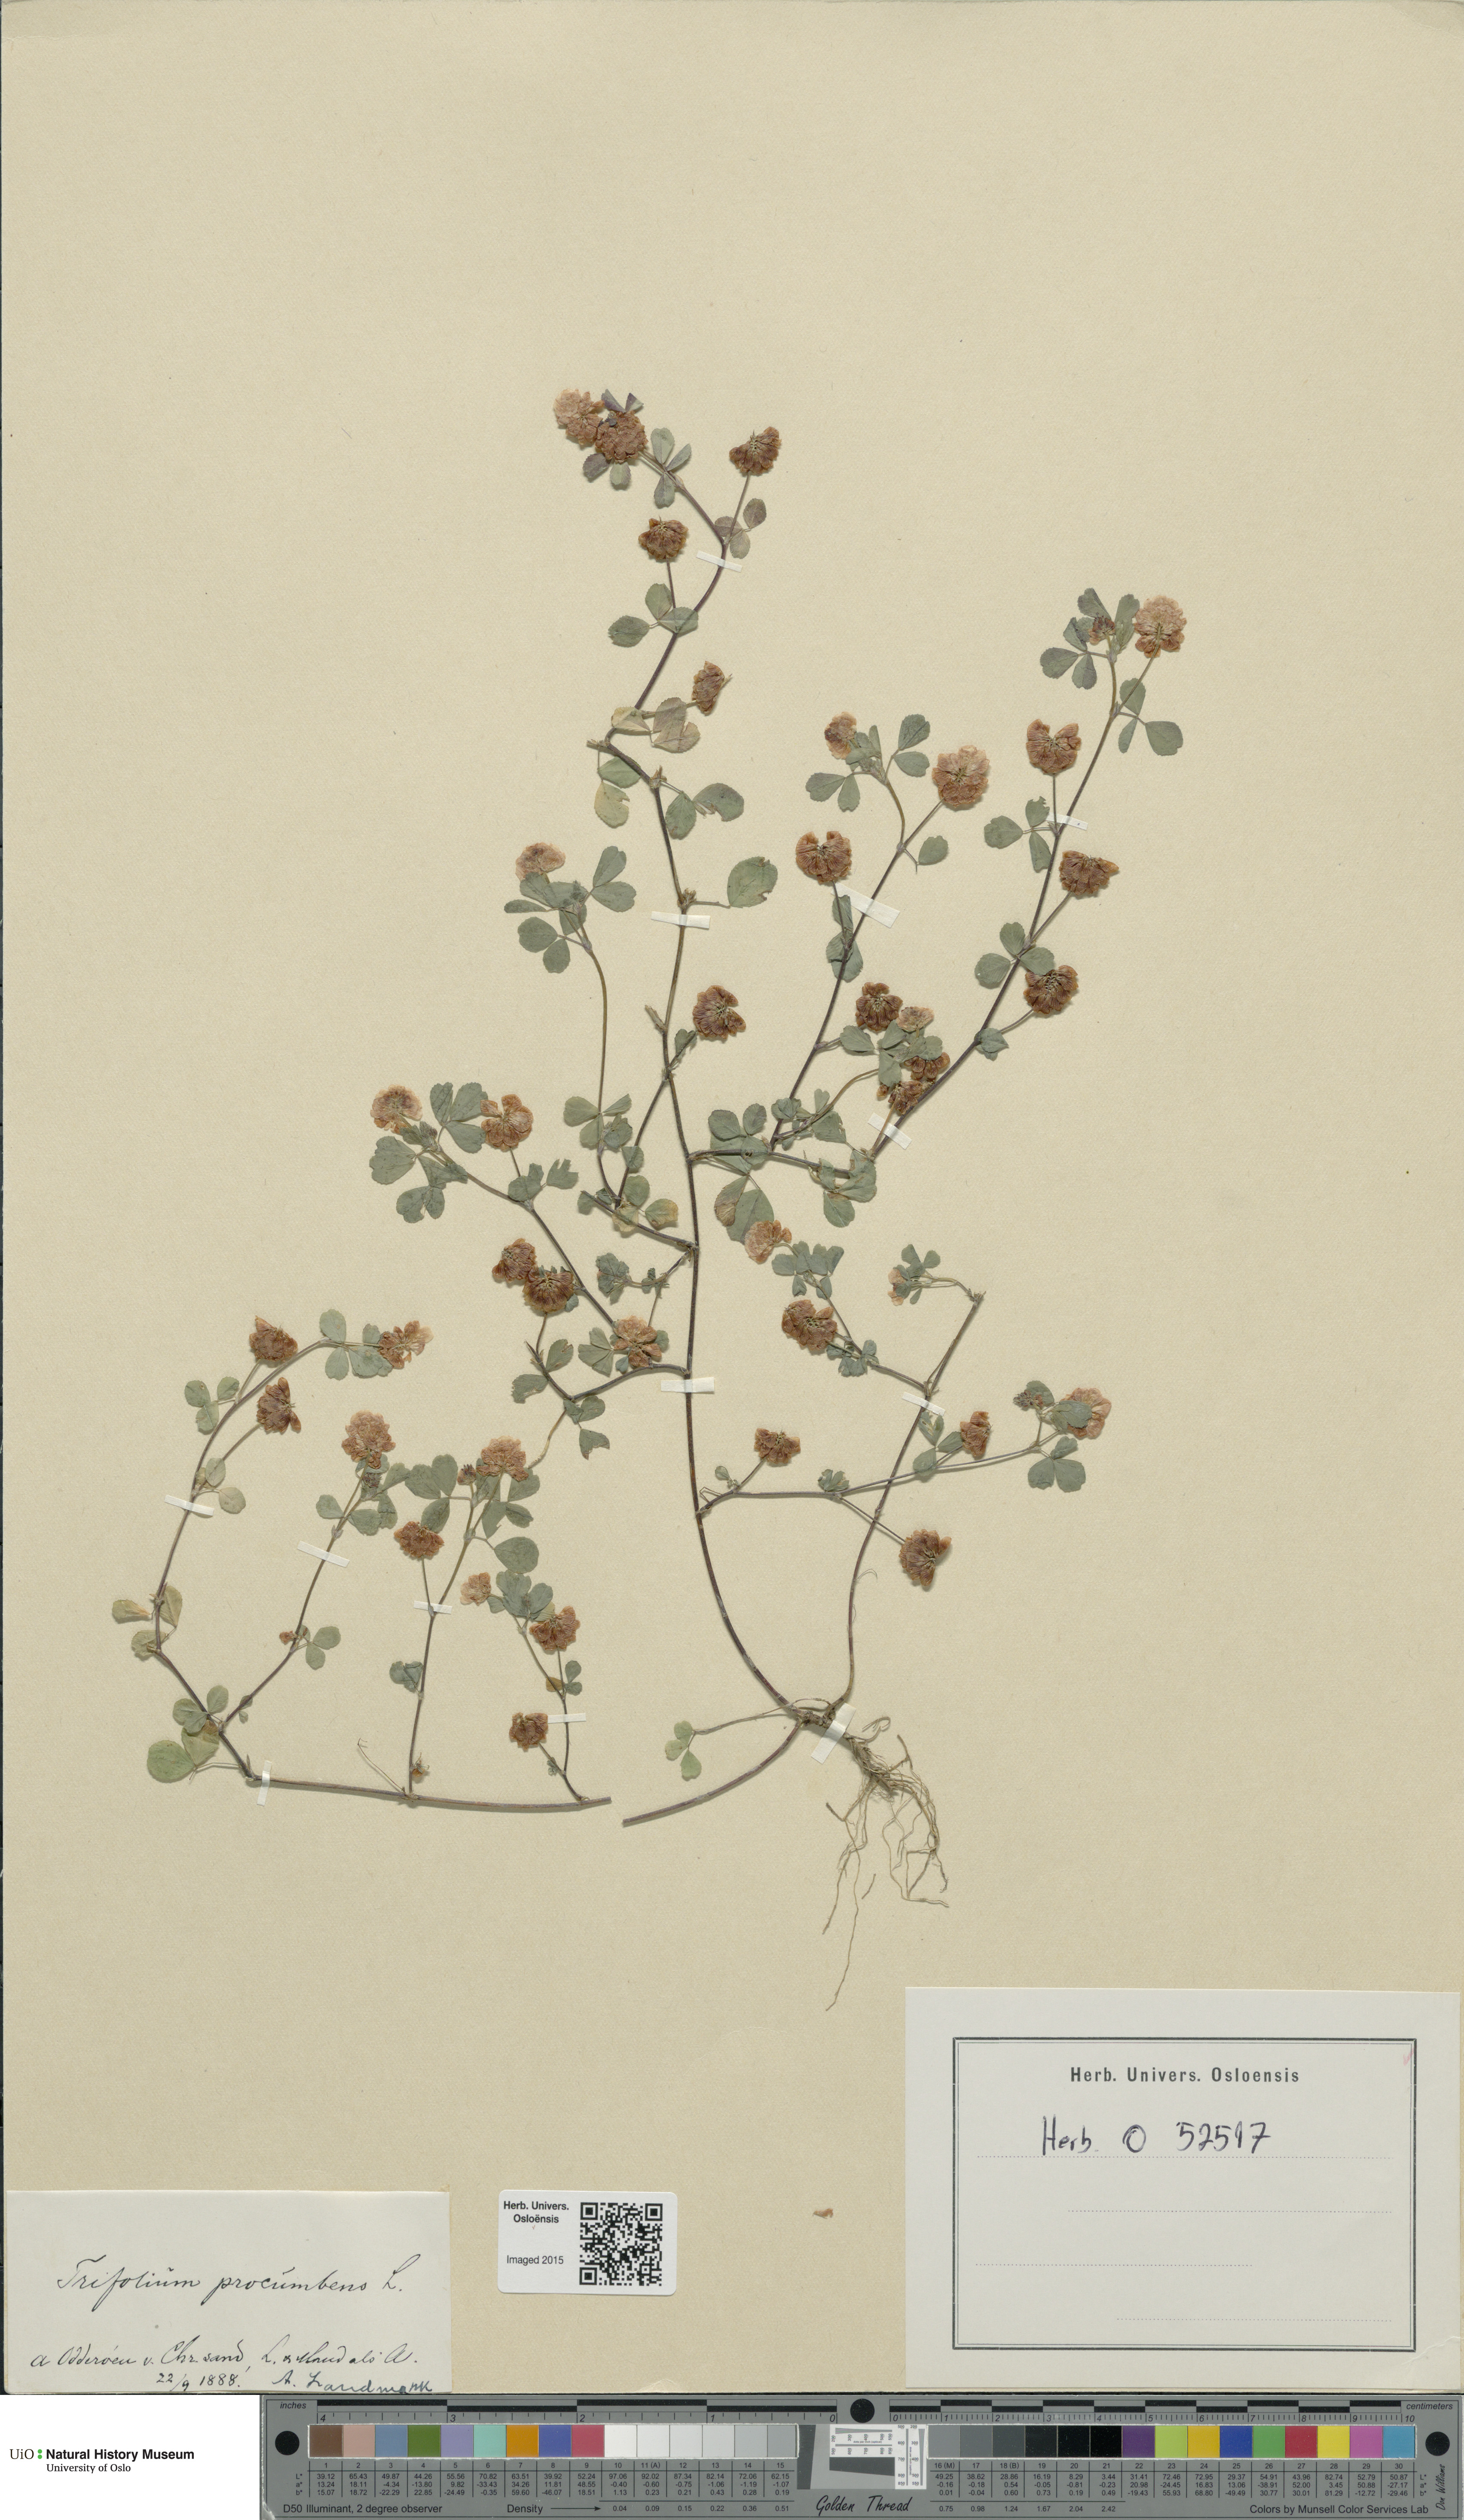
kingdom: Plantae
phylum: Tracheophyta
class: Magnoliopsida
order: Fabales
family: Fabaceae
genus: Trifolium
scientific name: Trifolium campestre
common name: Field clover
